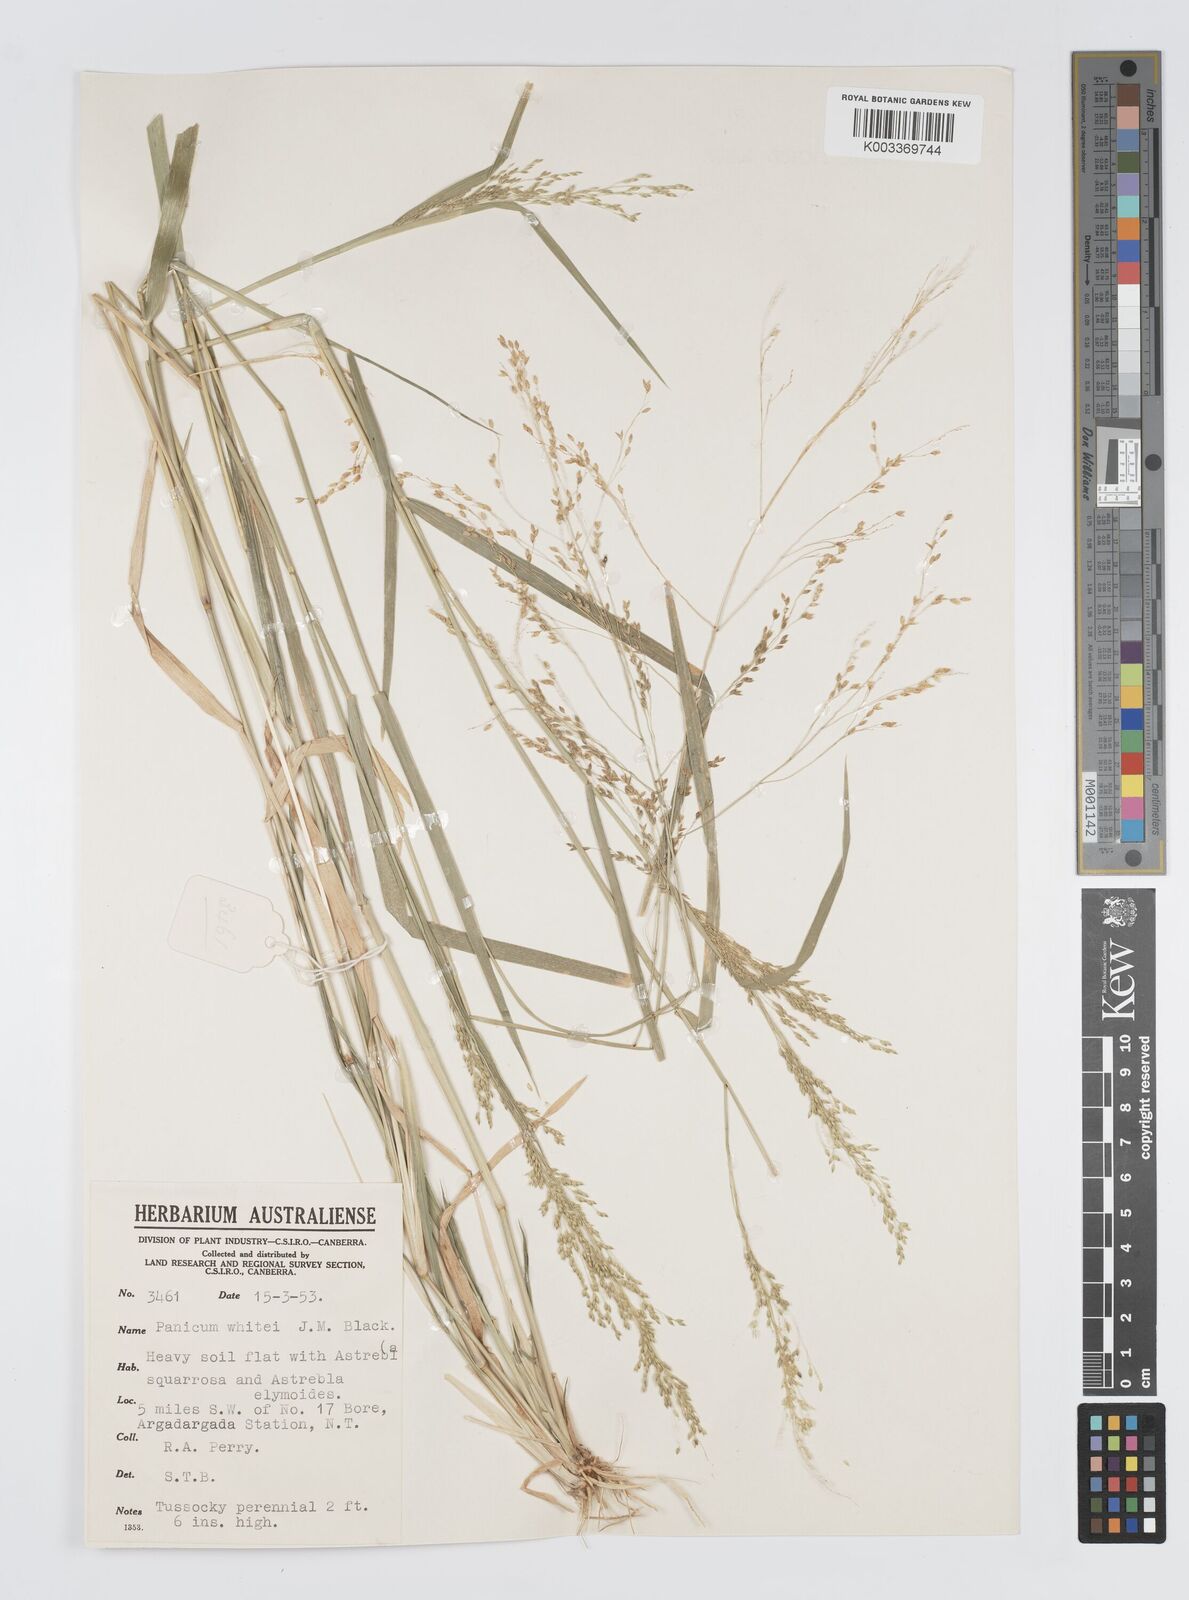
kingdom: Plantae
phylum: Tracheophyta
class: Liliopsida
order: Poales
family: Poaceae
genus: Panicum
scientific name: Panicum laevinode
